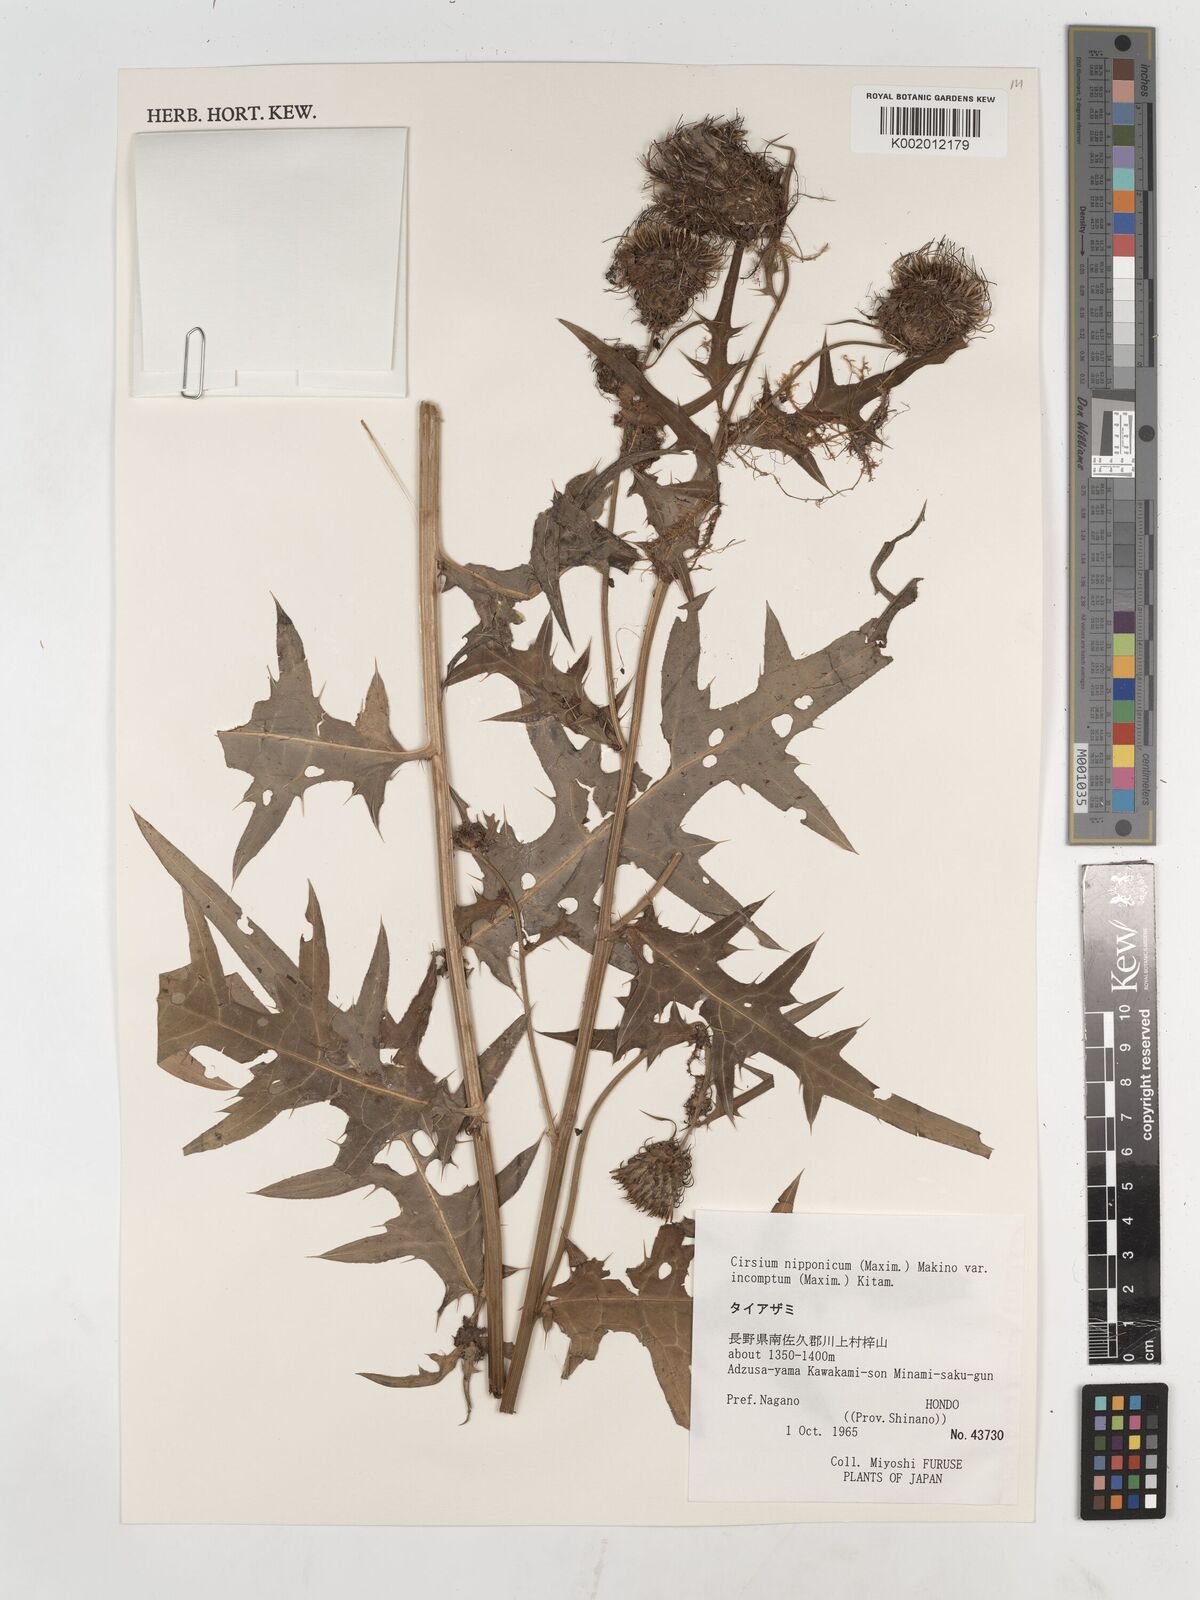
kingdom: Plantae
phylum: Tracheophyta
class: Magnoliopsida
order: Asterales
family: Asteraceae
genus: Cirsium
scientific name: Cirsium nipponicum
